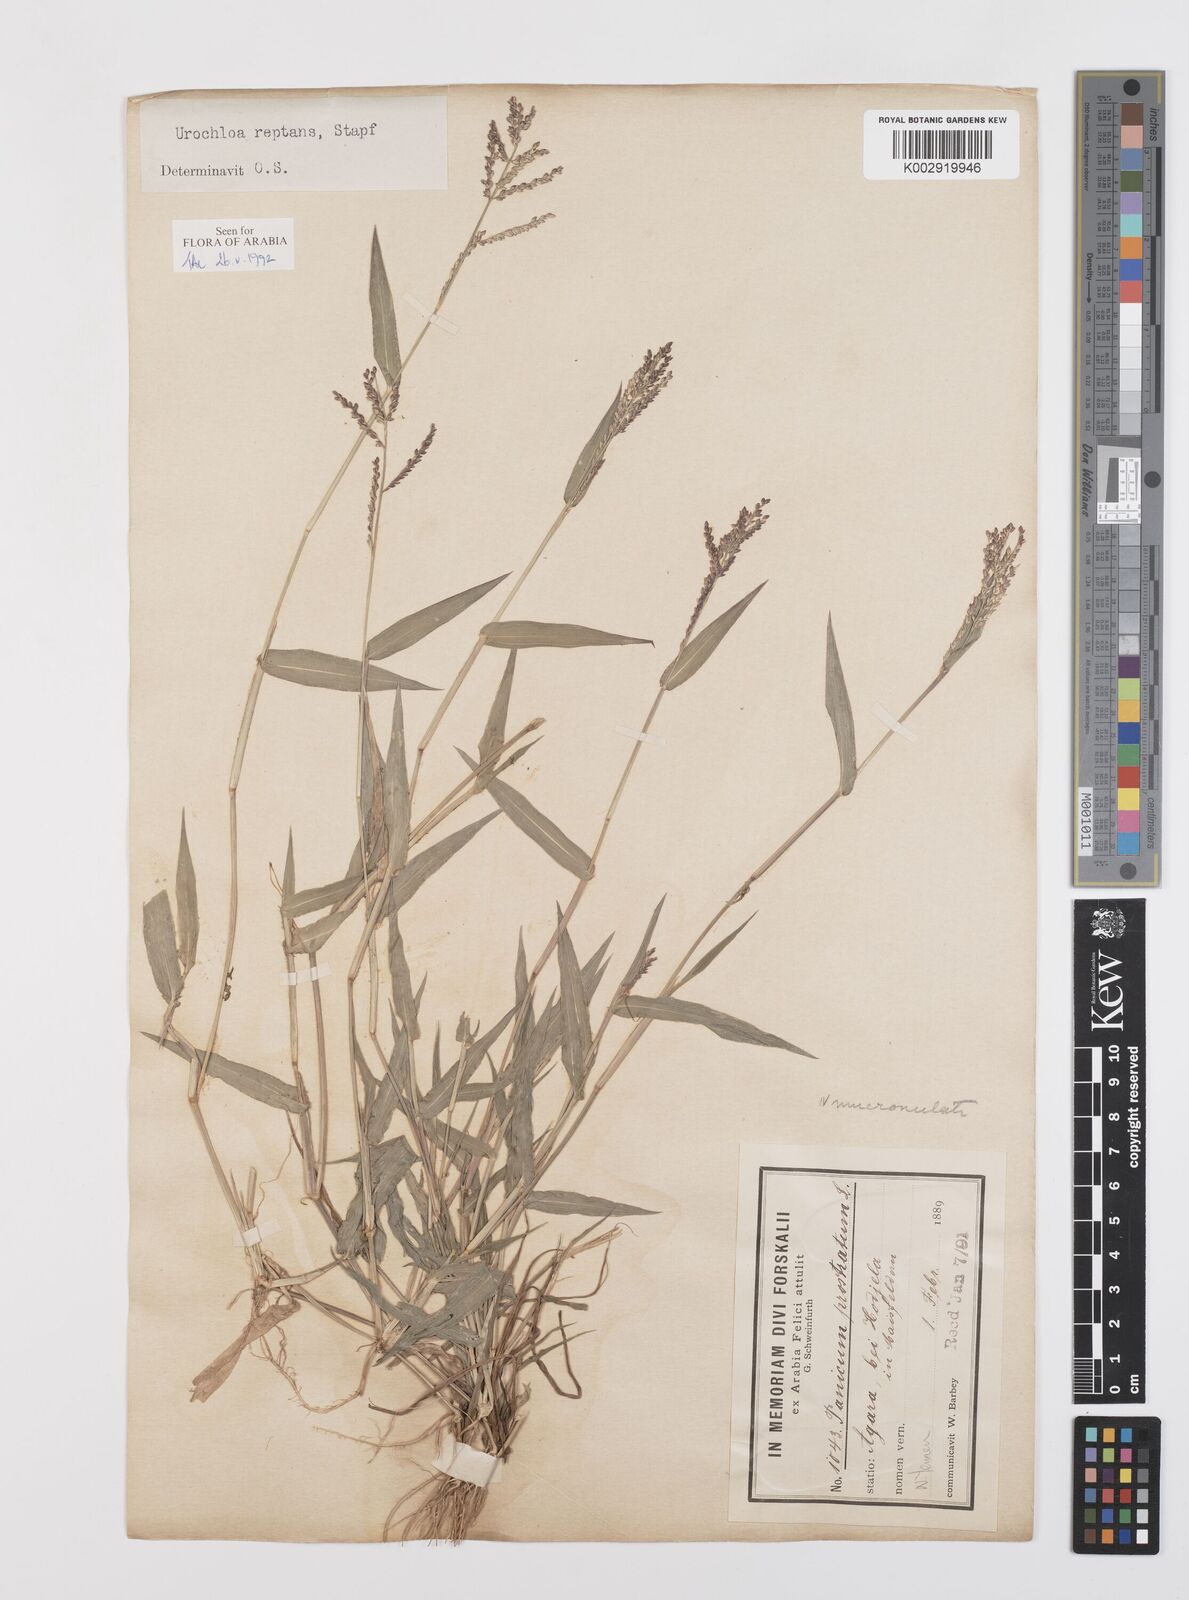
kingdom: Plantae
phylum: Tracheophyta
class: Liliopsida
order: Poales
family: Poaceae
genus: Urochloa
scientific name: Urochloa reptans
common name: Sprawling signalgrass
